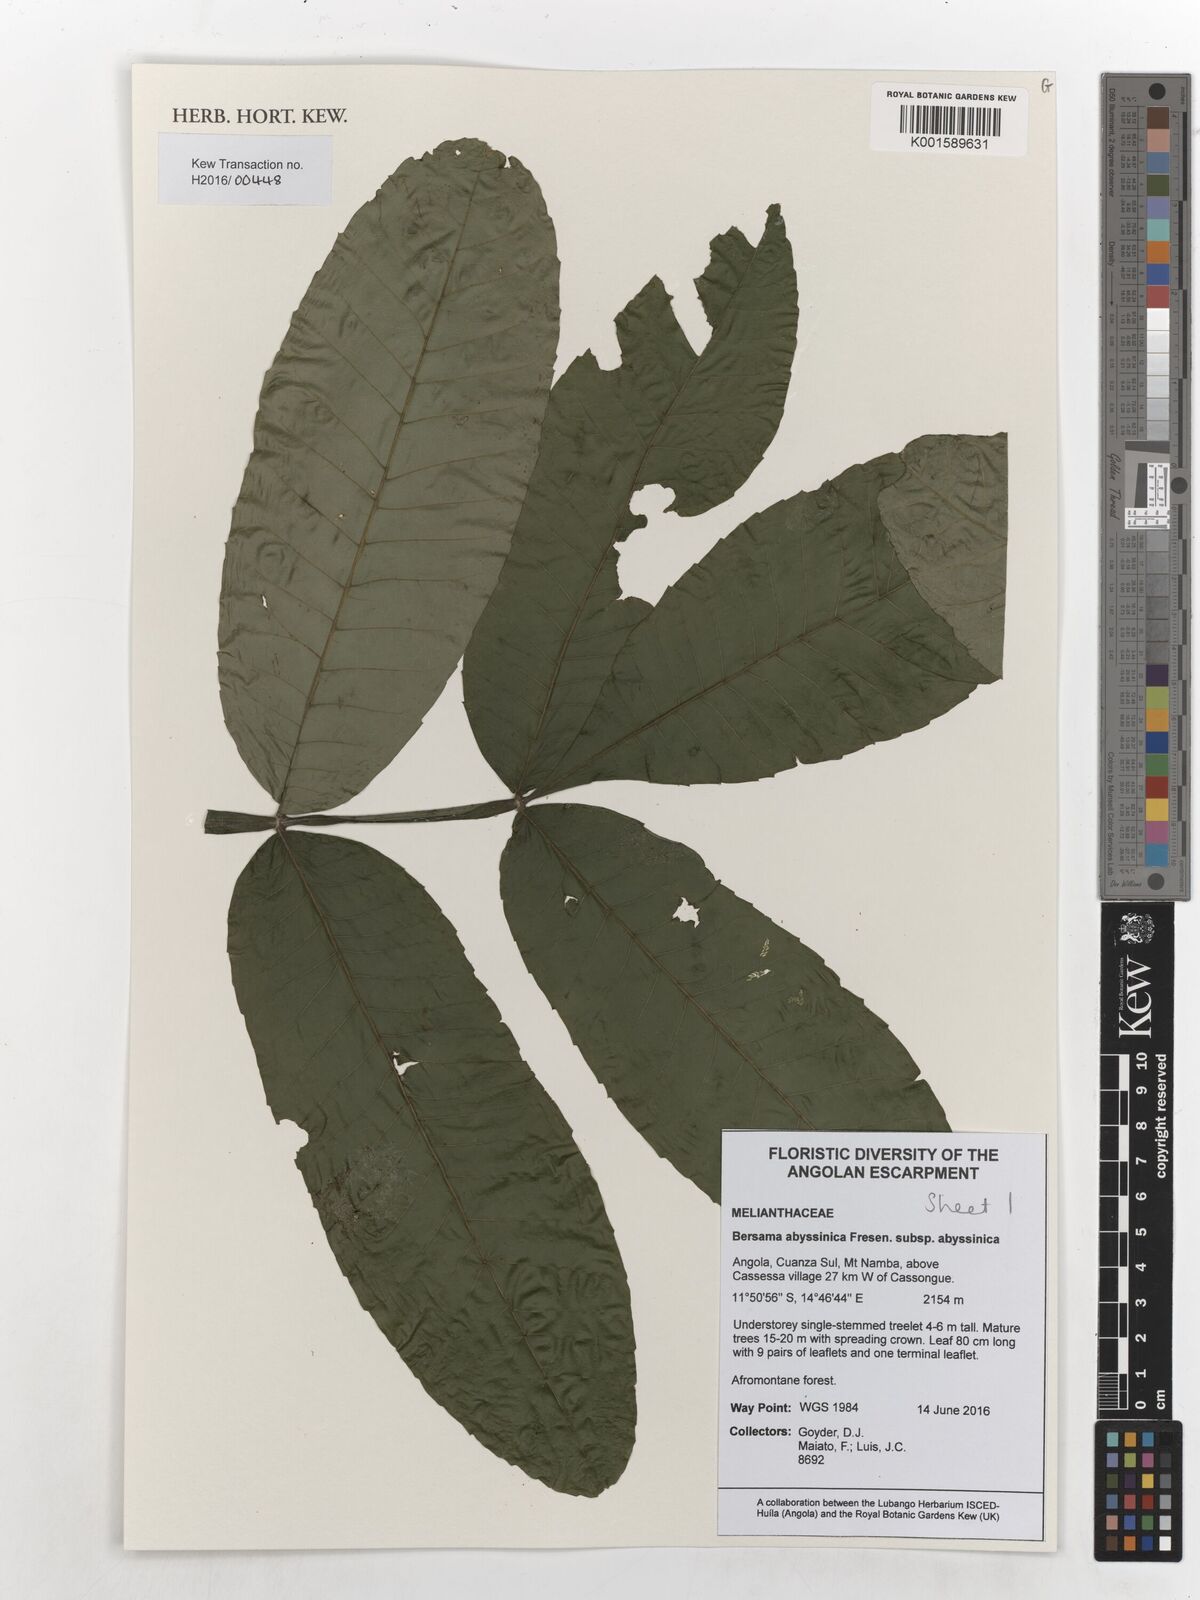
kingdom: Plantae
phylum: Tracheophyta
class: Magnoliopsida
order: Geraniales
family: Melianthaceae
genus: Bersama
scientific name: Bersama abyssinica
